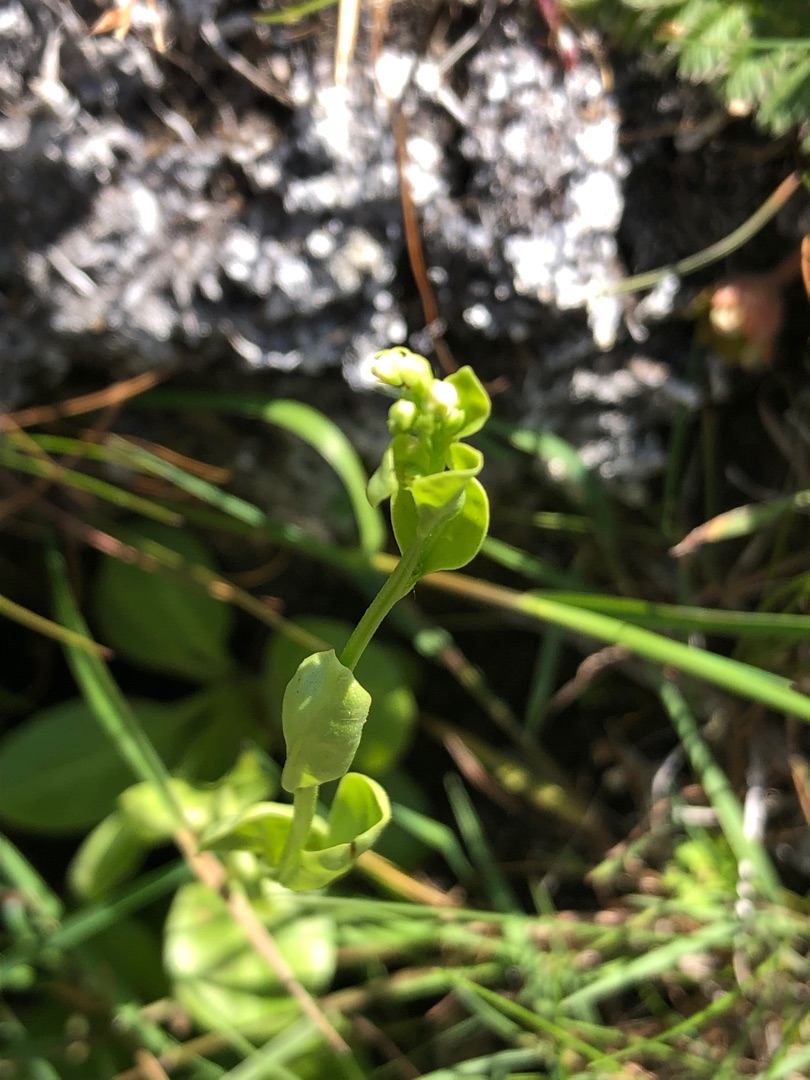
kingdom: Plantae
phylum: Tracheophyta
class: Magnoliopsida
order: Ericales
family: Primulaceae
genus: Samolus
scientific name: Samolus valerandi
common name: Samel
